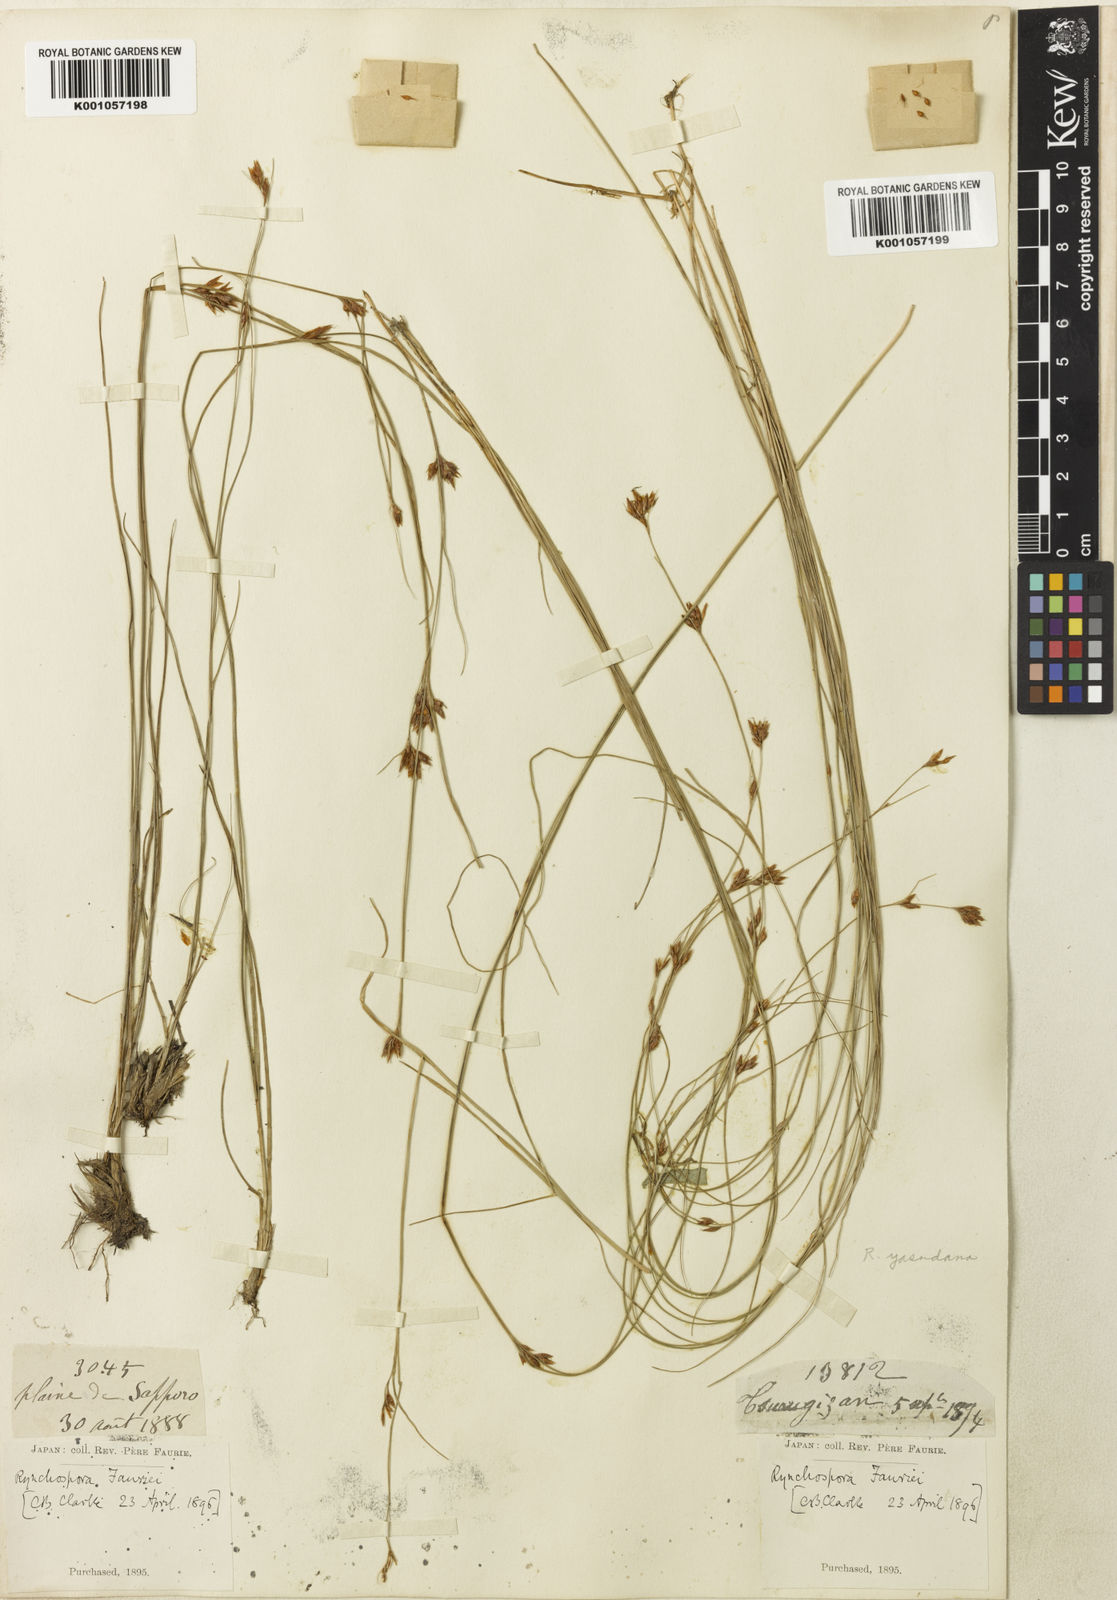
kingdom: Plantae
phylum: Tracheophyta
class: Liliopsida
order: Poales
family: Cyperaceae
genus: Rhynchospora
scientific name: Rhynchospora
